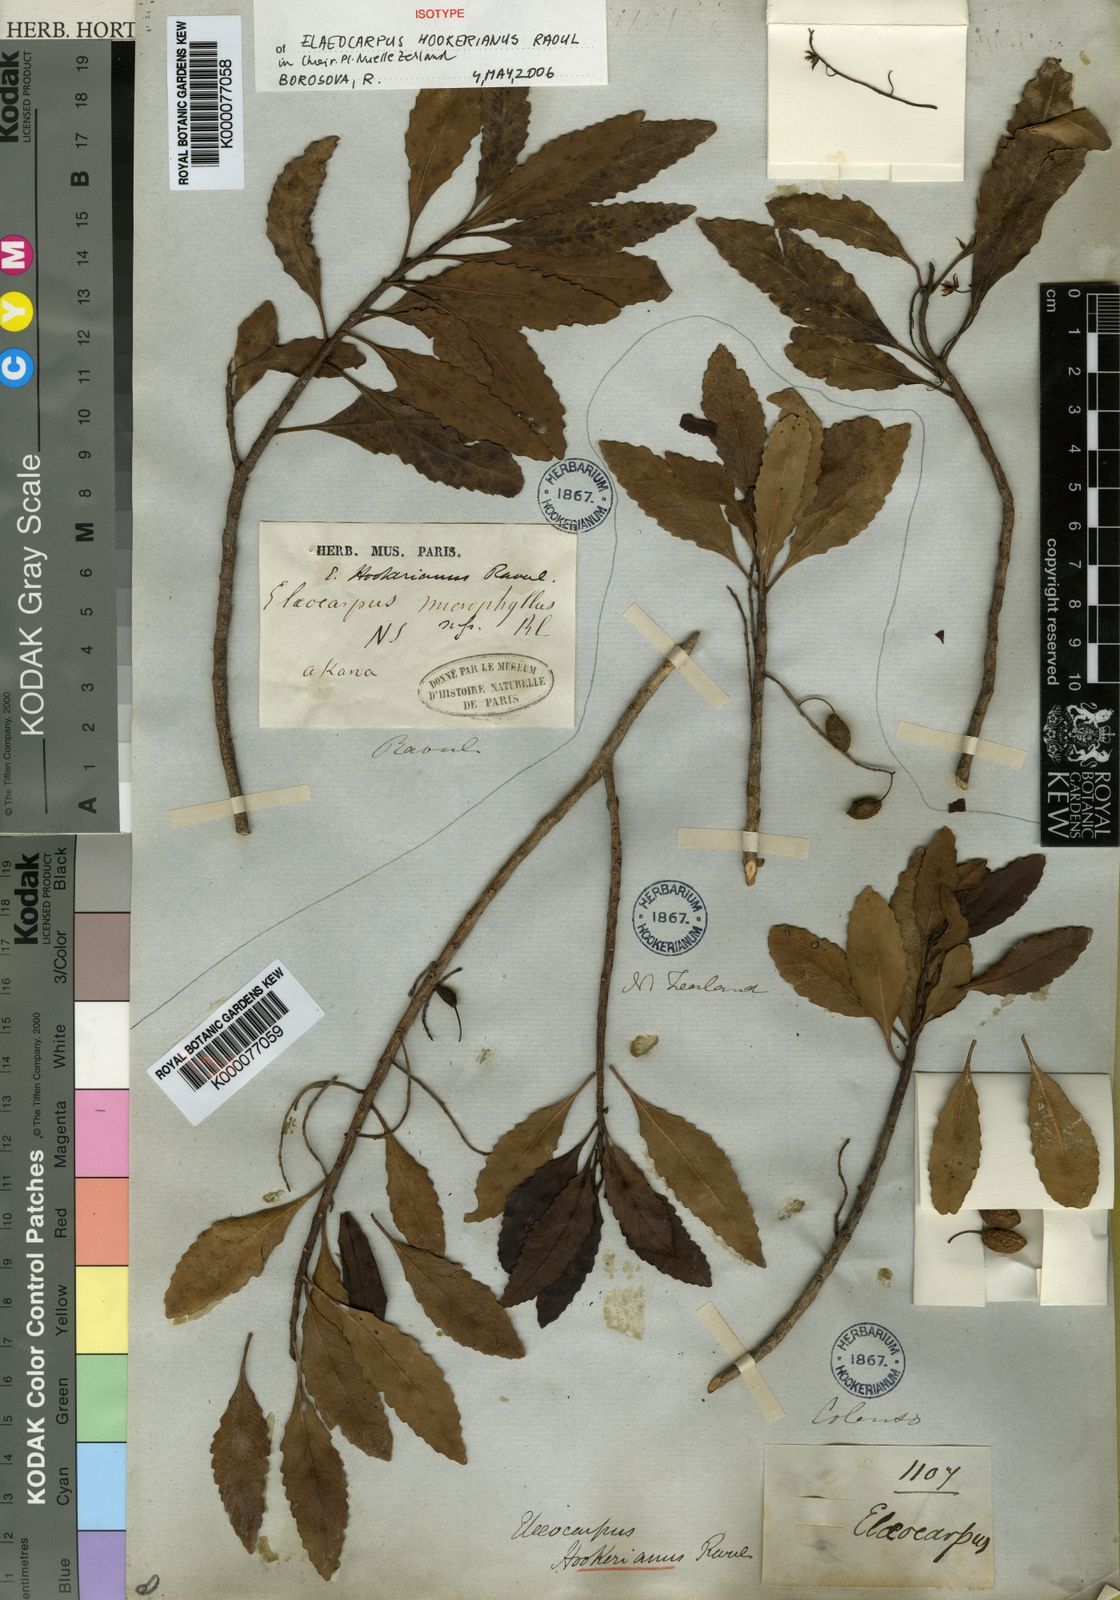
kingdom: Plantae
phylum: Tracheophyta
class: Magnoliopsida
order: Oxalidales
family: Elaeocarpaceae
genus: Elaeocarpus
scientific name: Elaeocarpus hookerianus
